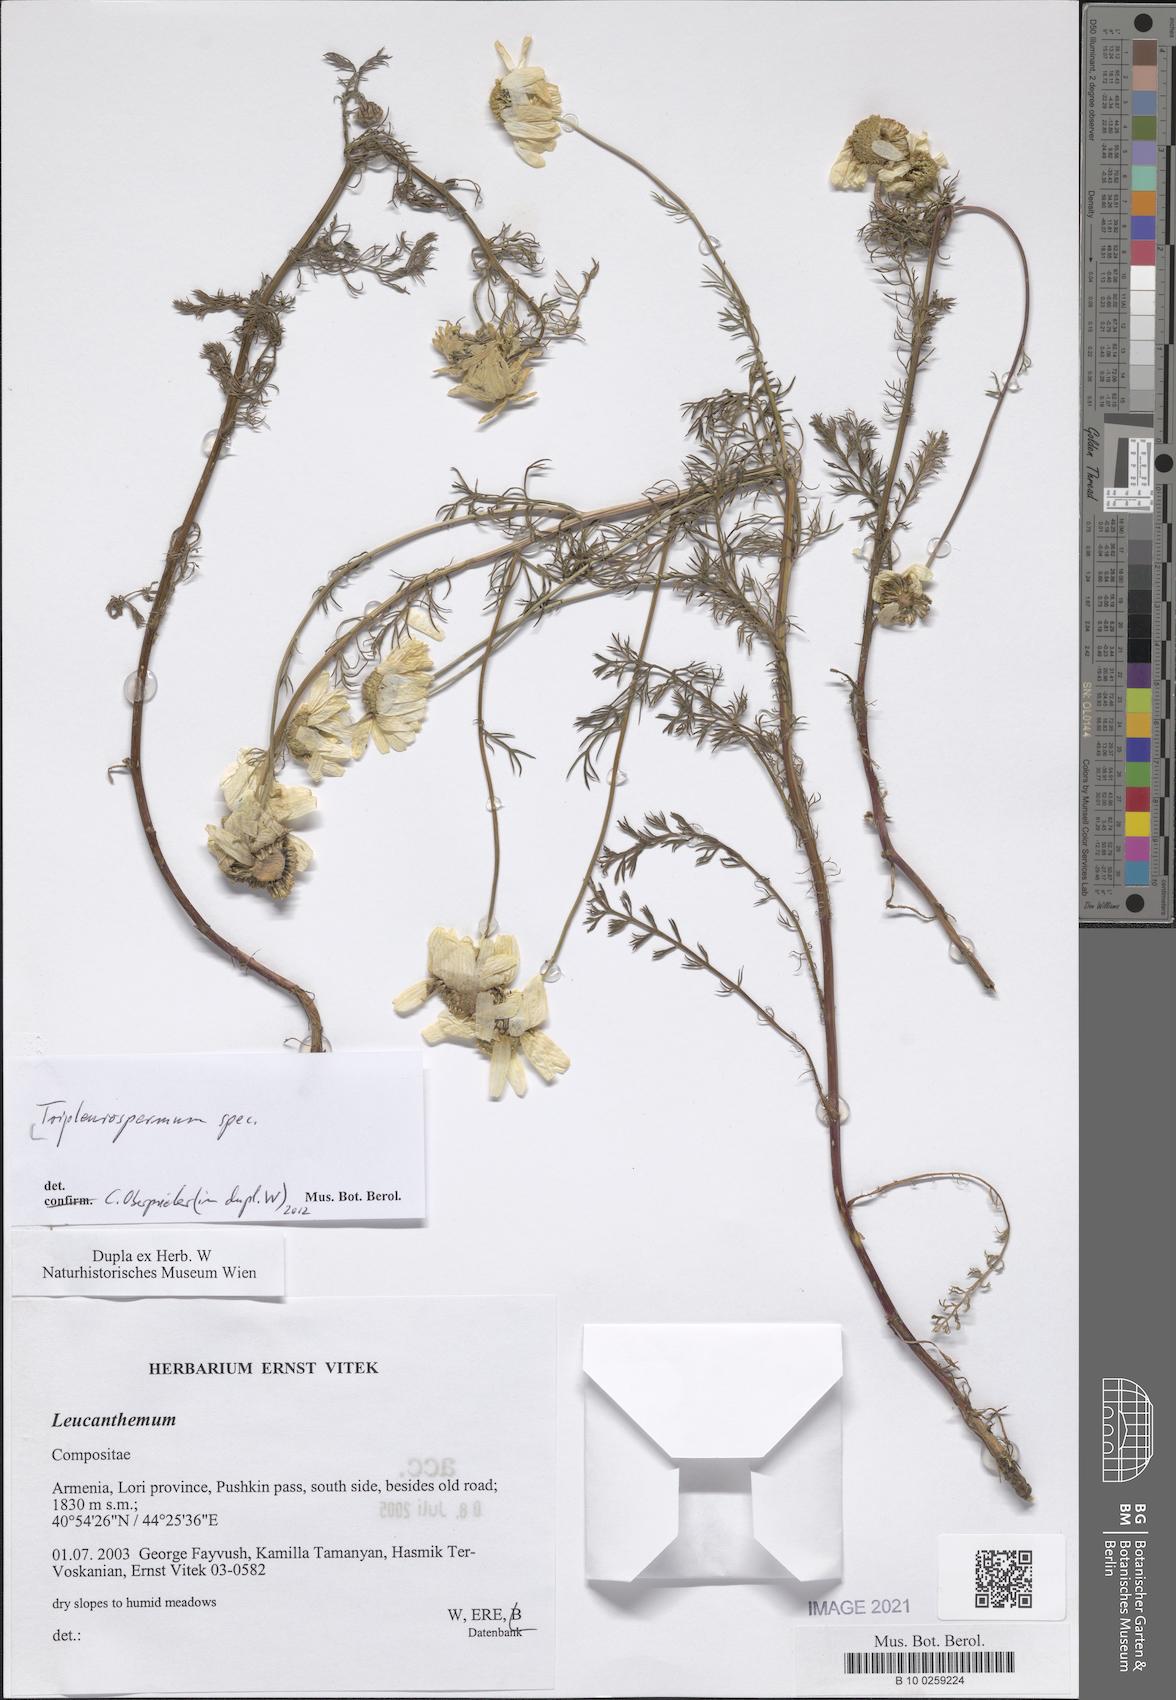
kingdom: Plantae
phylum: Tracheophyta
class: Magnoliopsida
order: Asterales
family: Asteraceae
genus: Tripleurospermum
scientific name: Tripleurospermum
